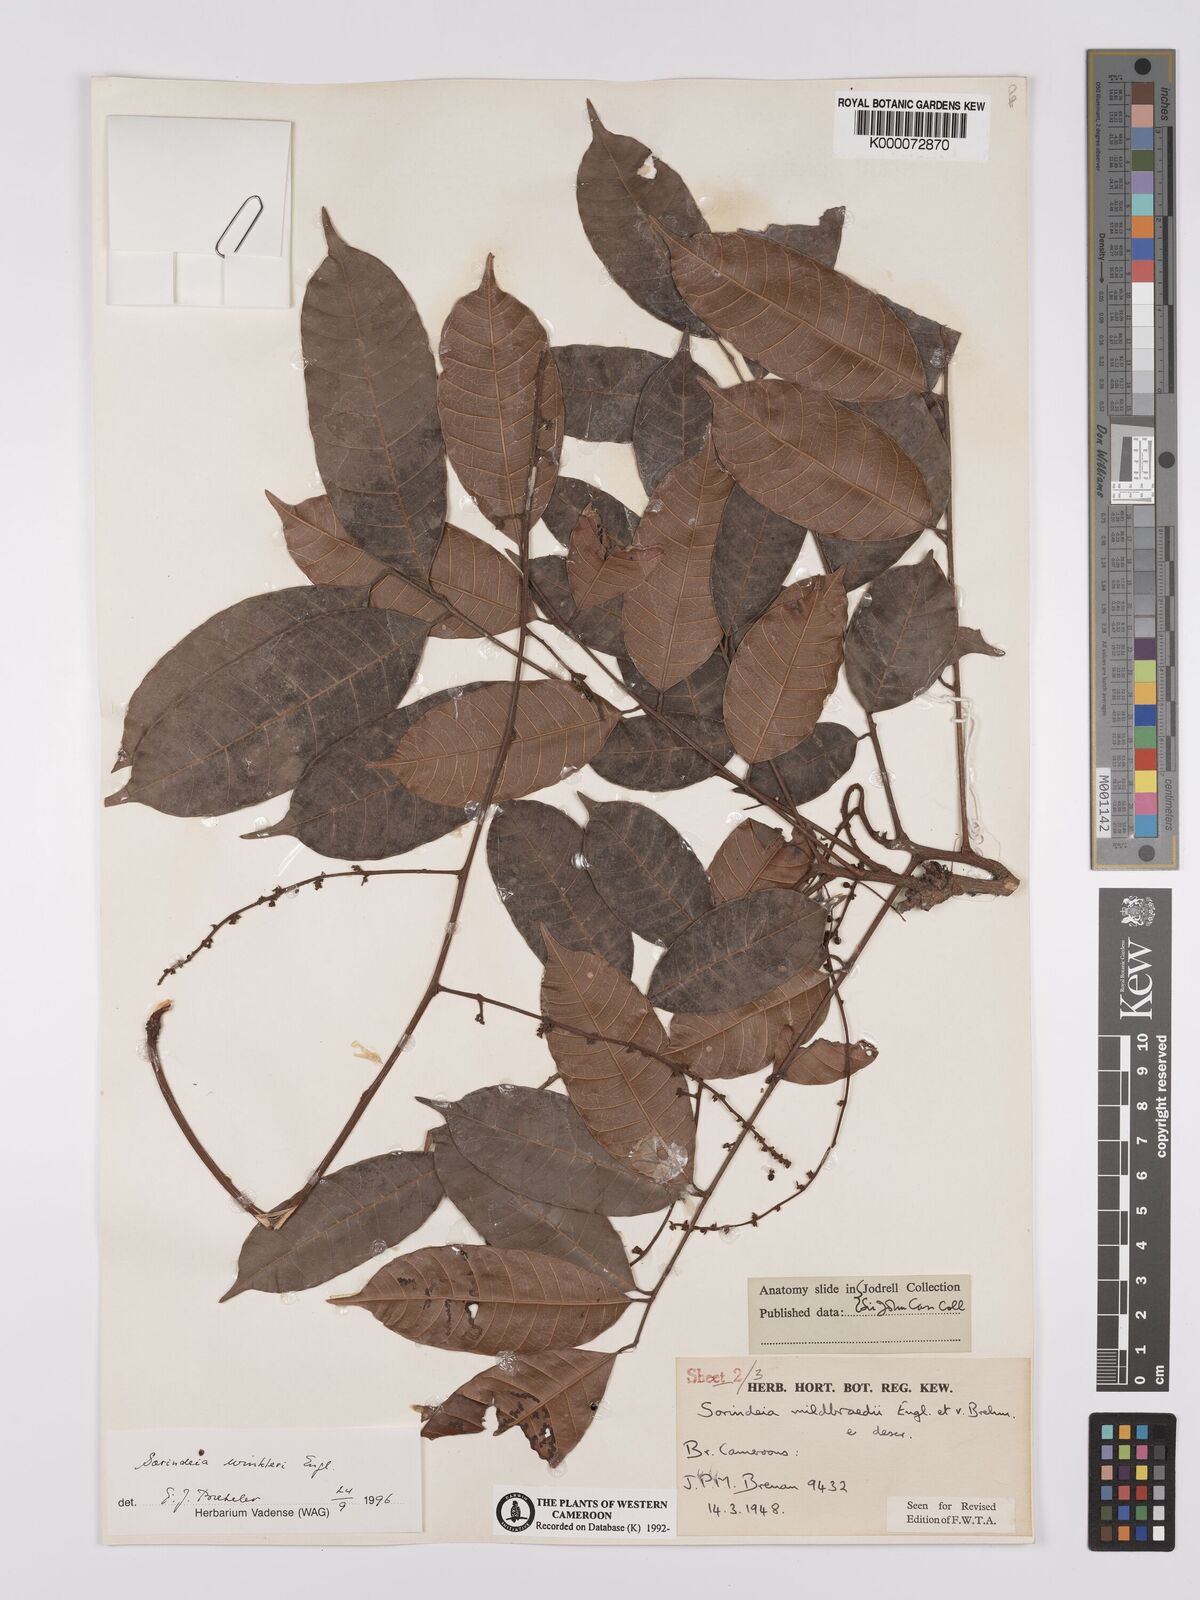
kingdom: Plantae
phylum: Tracheophyta
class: Magnoliopsida
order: Sapindales
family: Anacardiaceae
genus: Sorindeia
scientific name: Sorindeia winkleri
